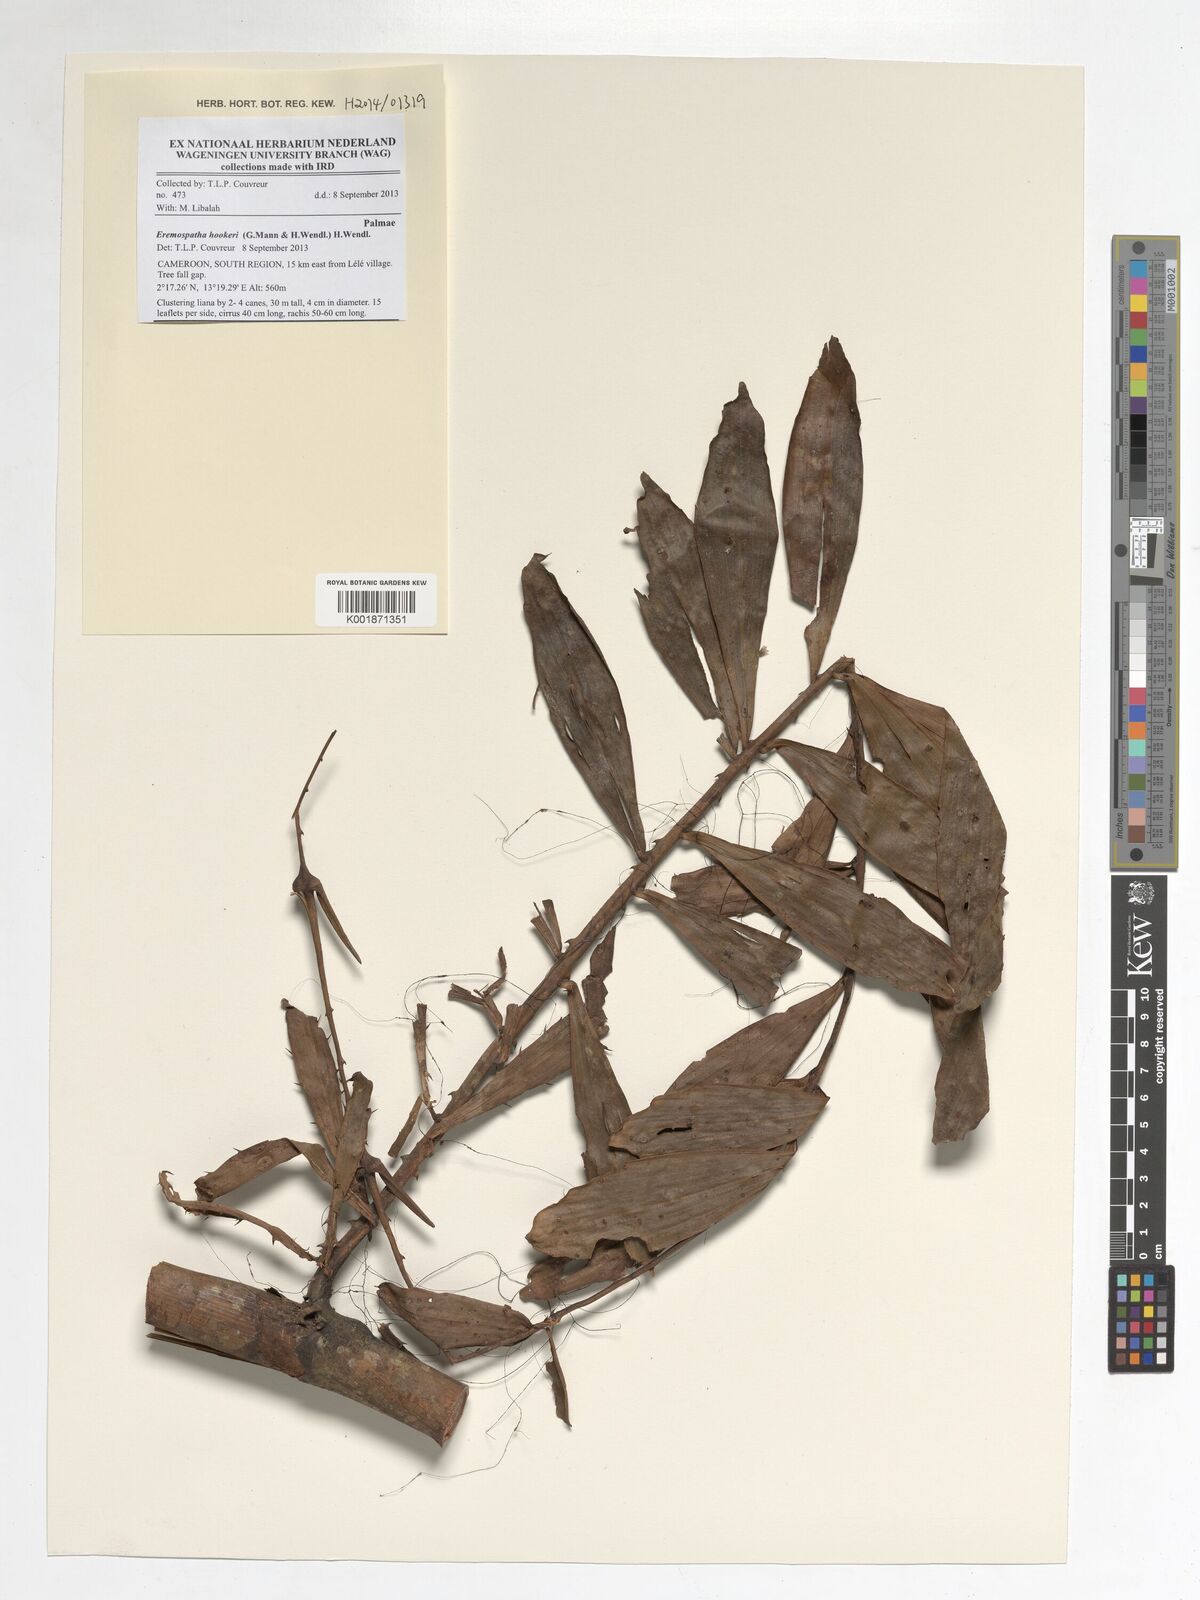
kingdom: Plantae
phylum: Tracheophyta
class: Liliopsida
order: Arecales
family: Arecaceae
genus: Eremospatha
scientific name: Eremospatha hookeri
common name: Rattan
